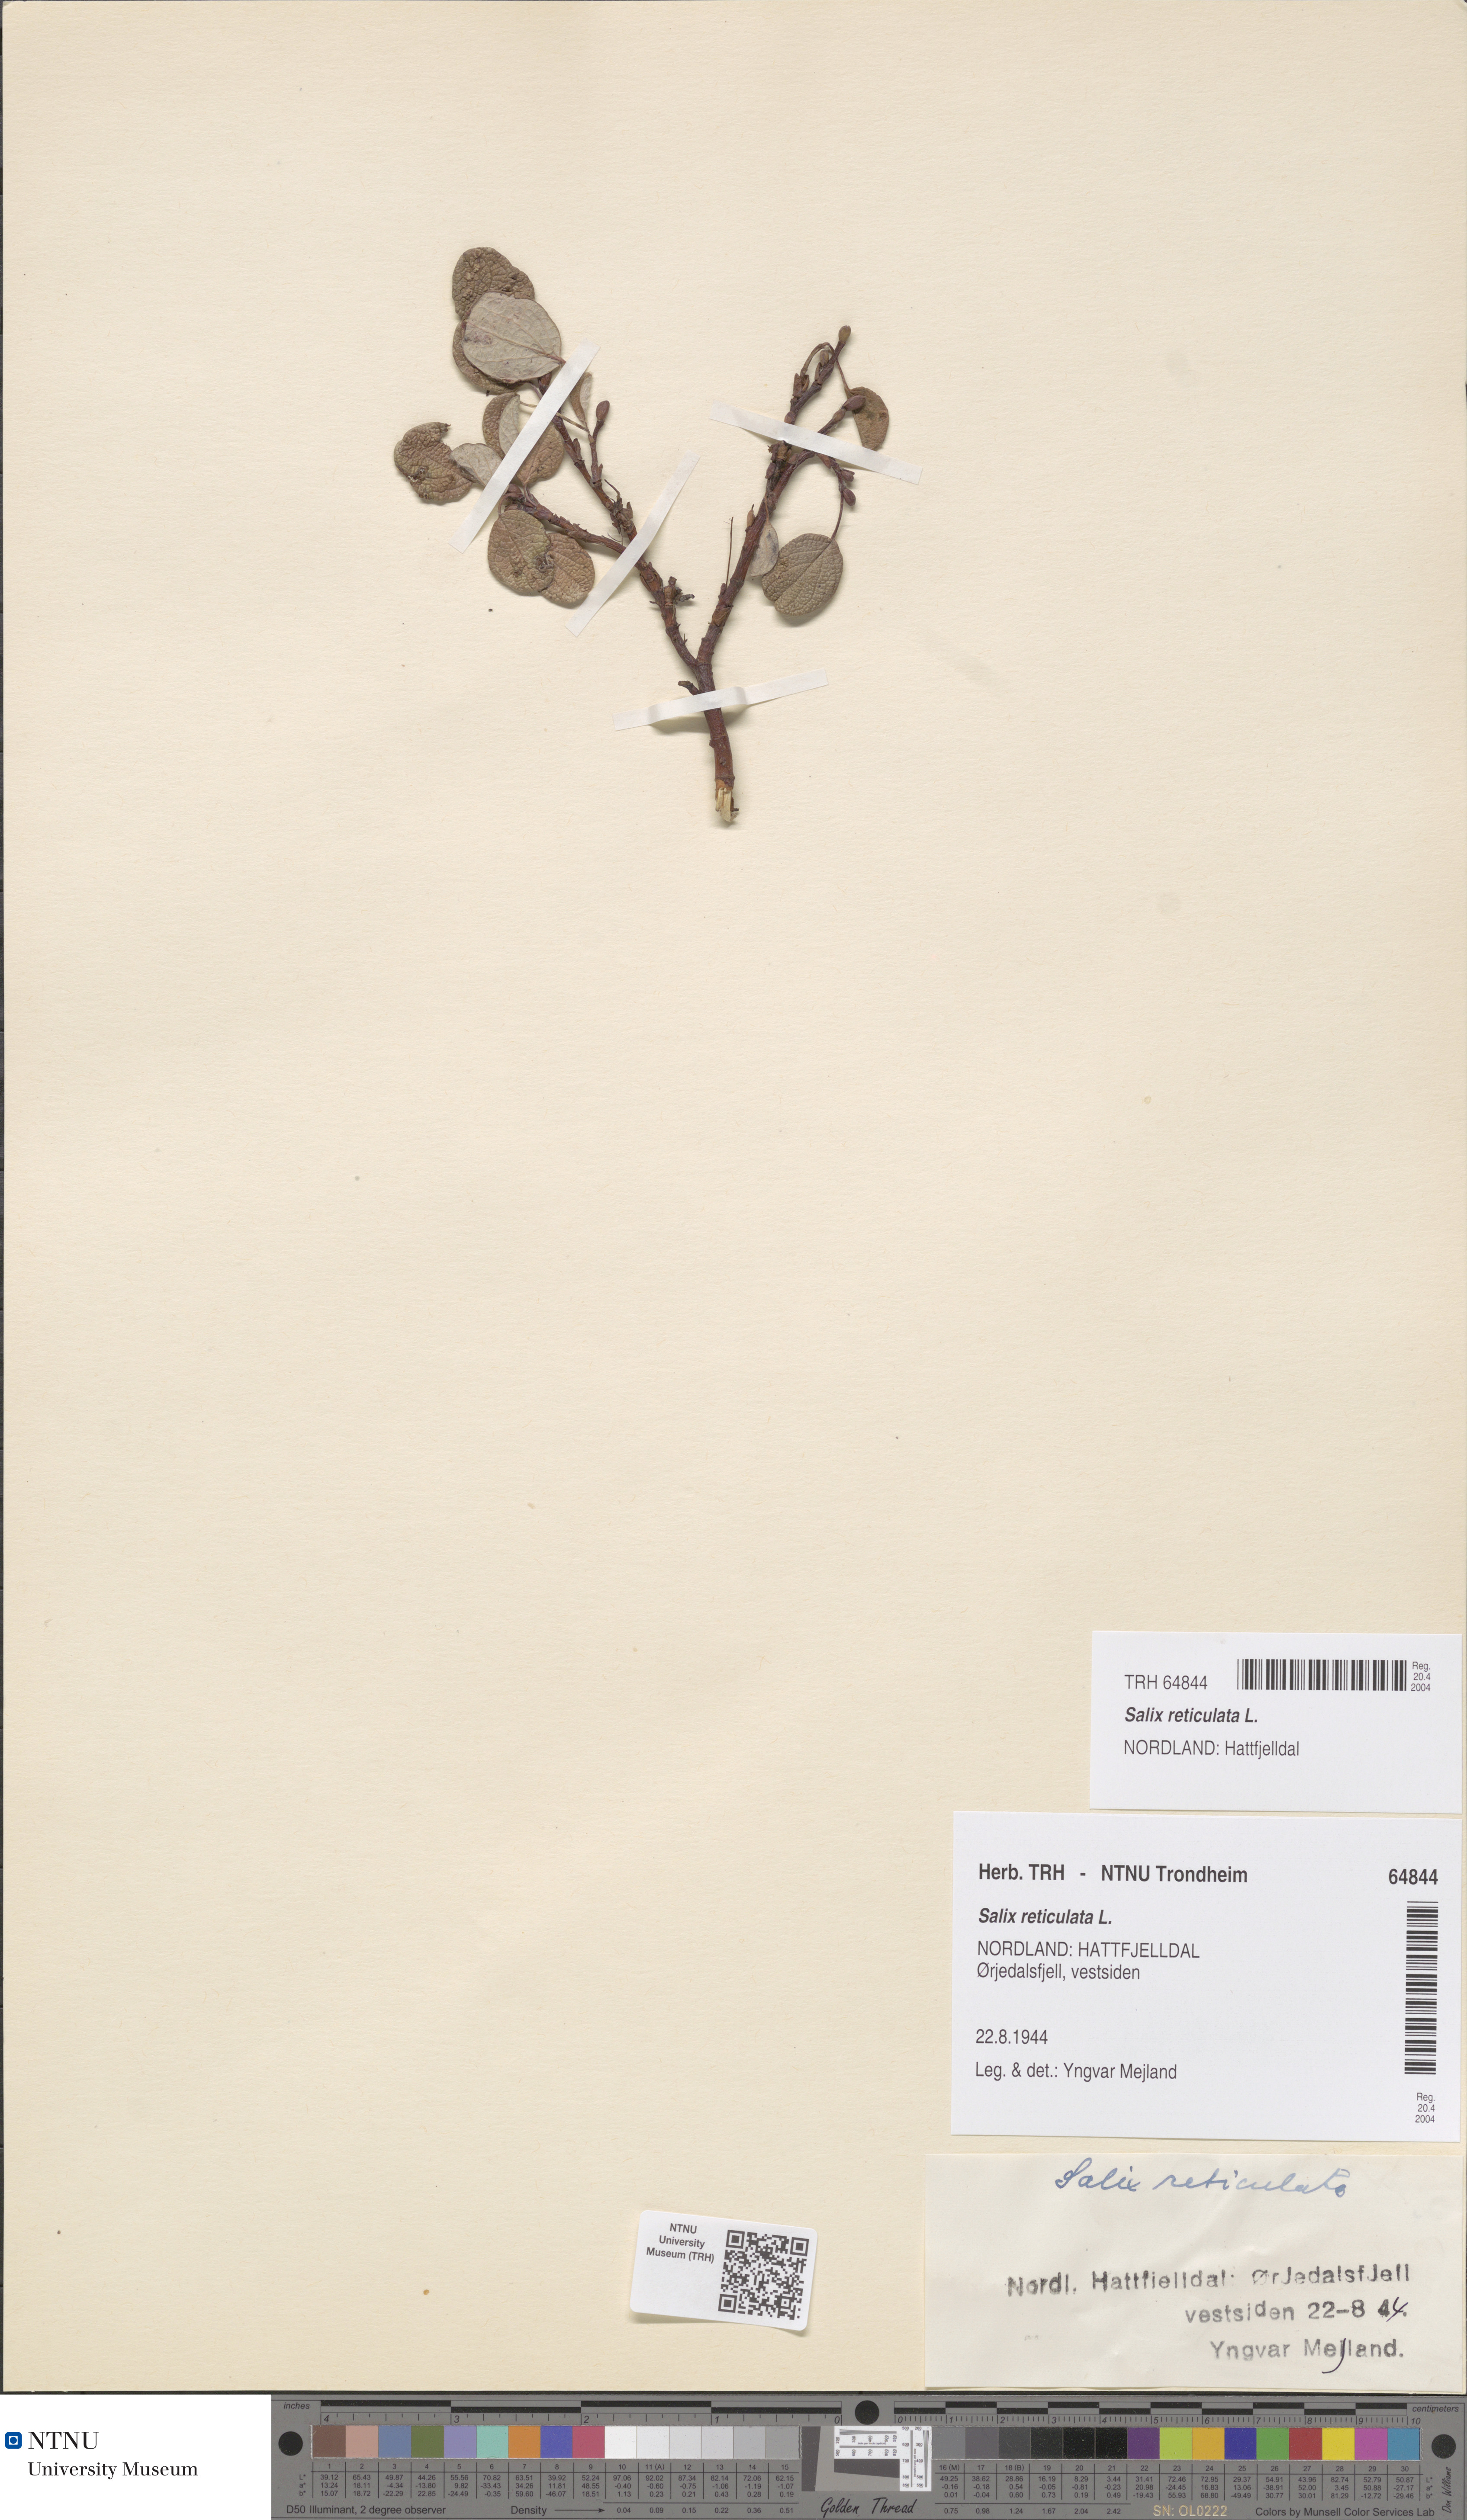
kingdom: Plantae
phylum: Tracheophyta
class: Magnoliopsida
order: Malpighiales
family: Salicaceae
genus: Salix
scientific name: Salix reticulata
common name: Net-leaved willow
